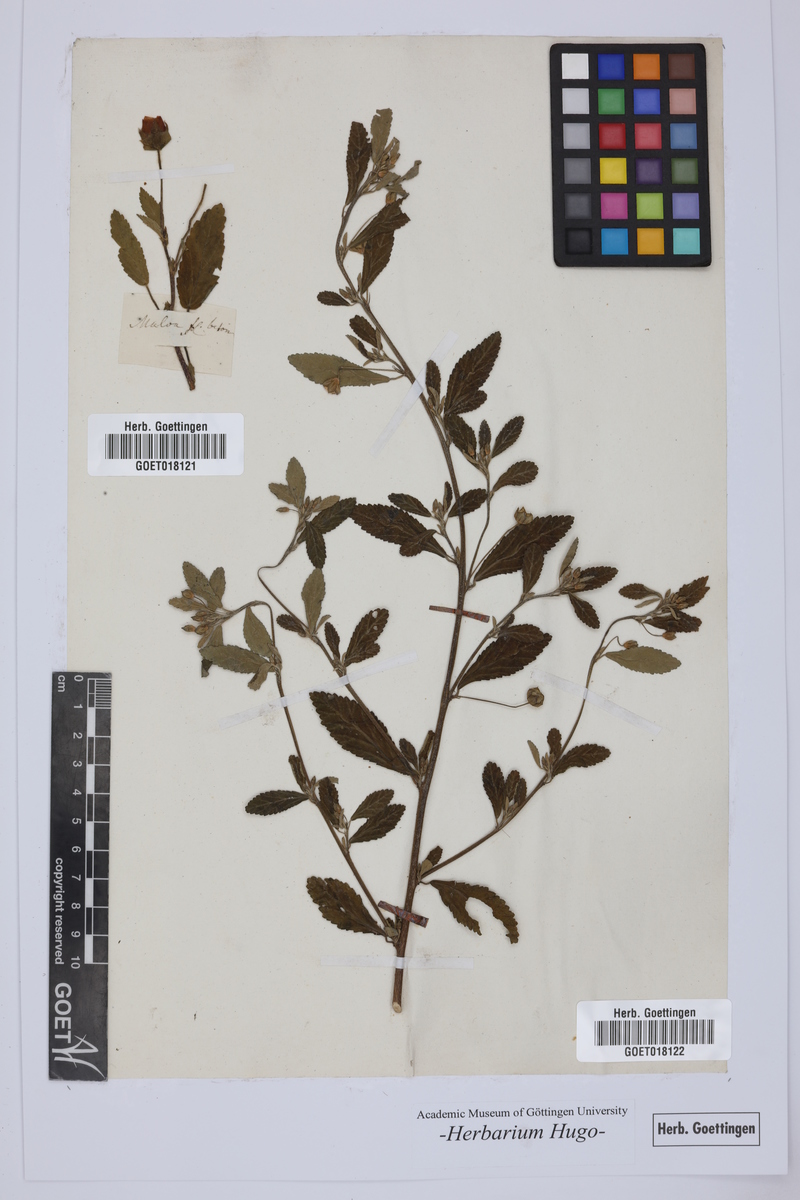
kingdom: Plantae
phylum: Tracheophyta
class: Magnoliopsida
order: Malvales
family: Malvaceae
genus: Malope
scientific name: Malope malacoides
